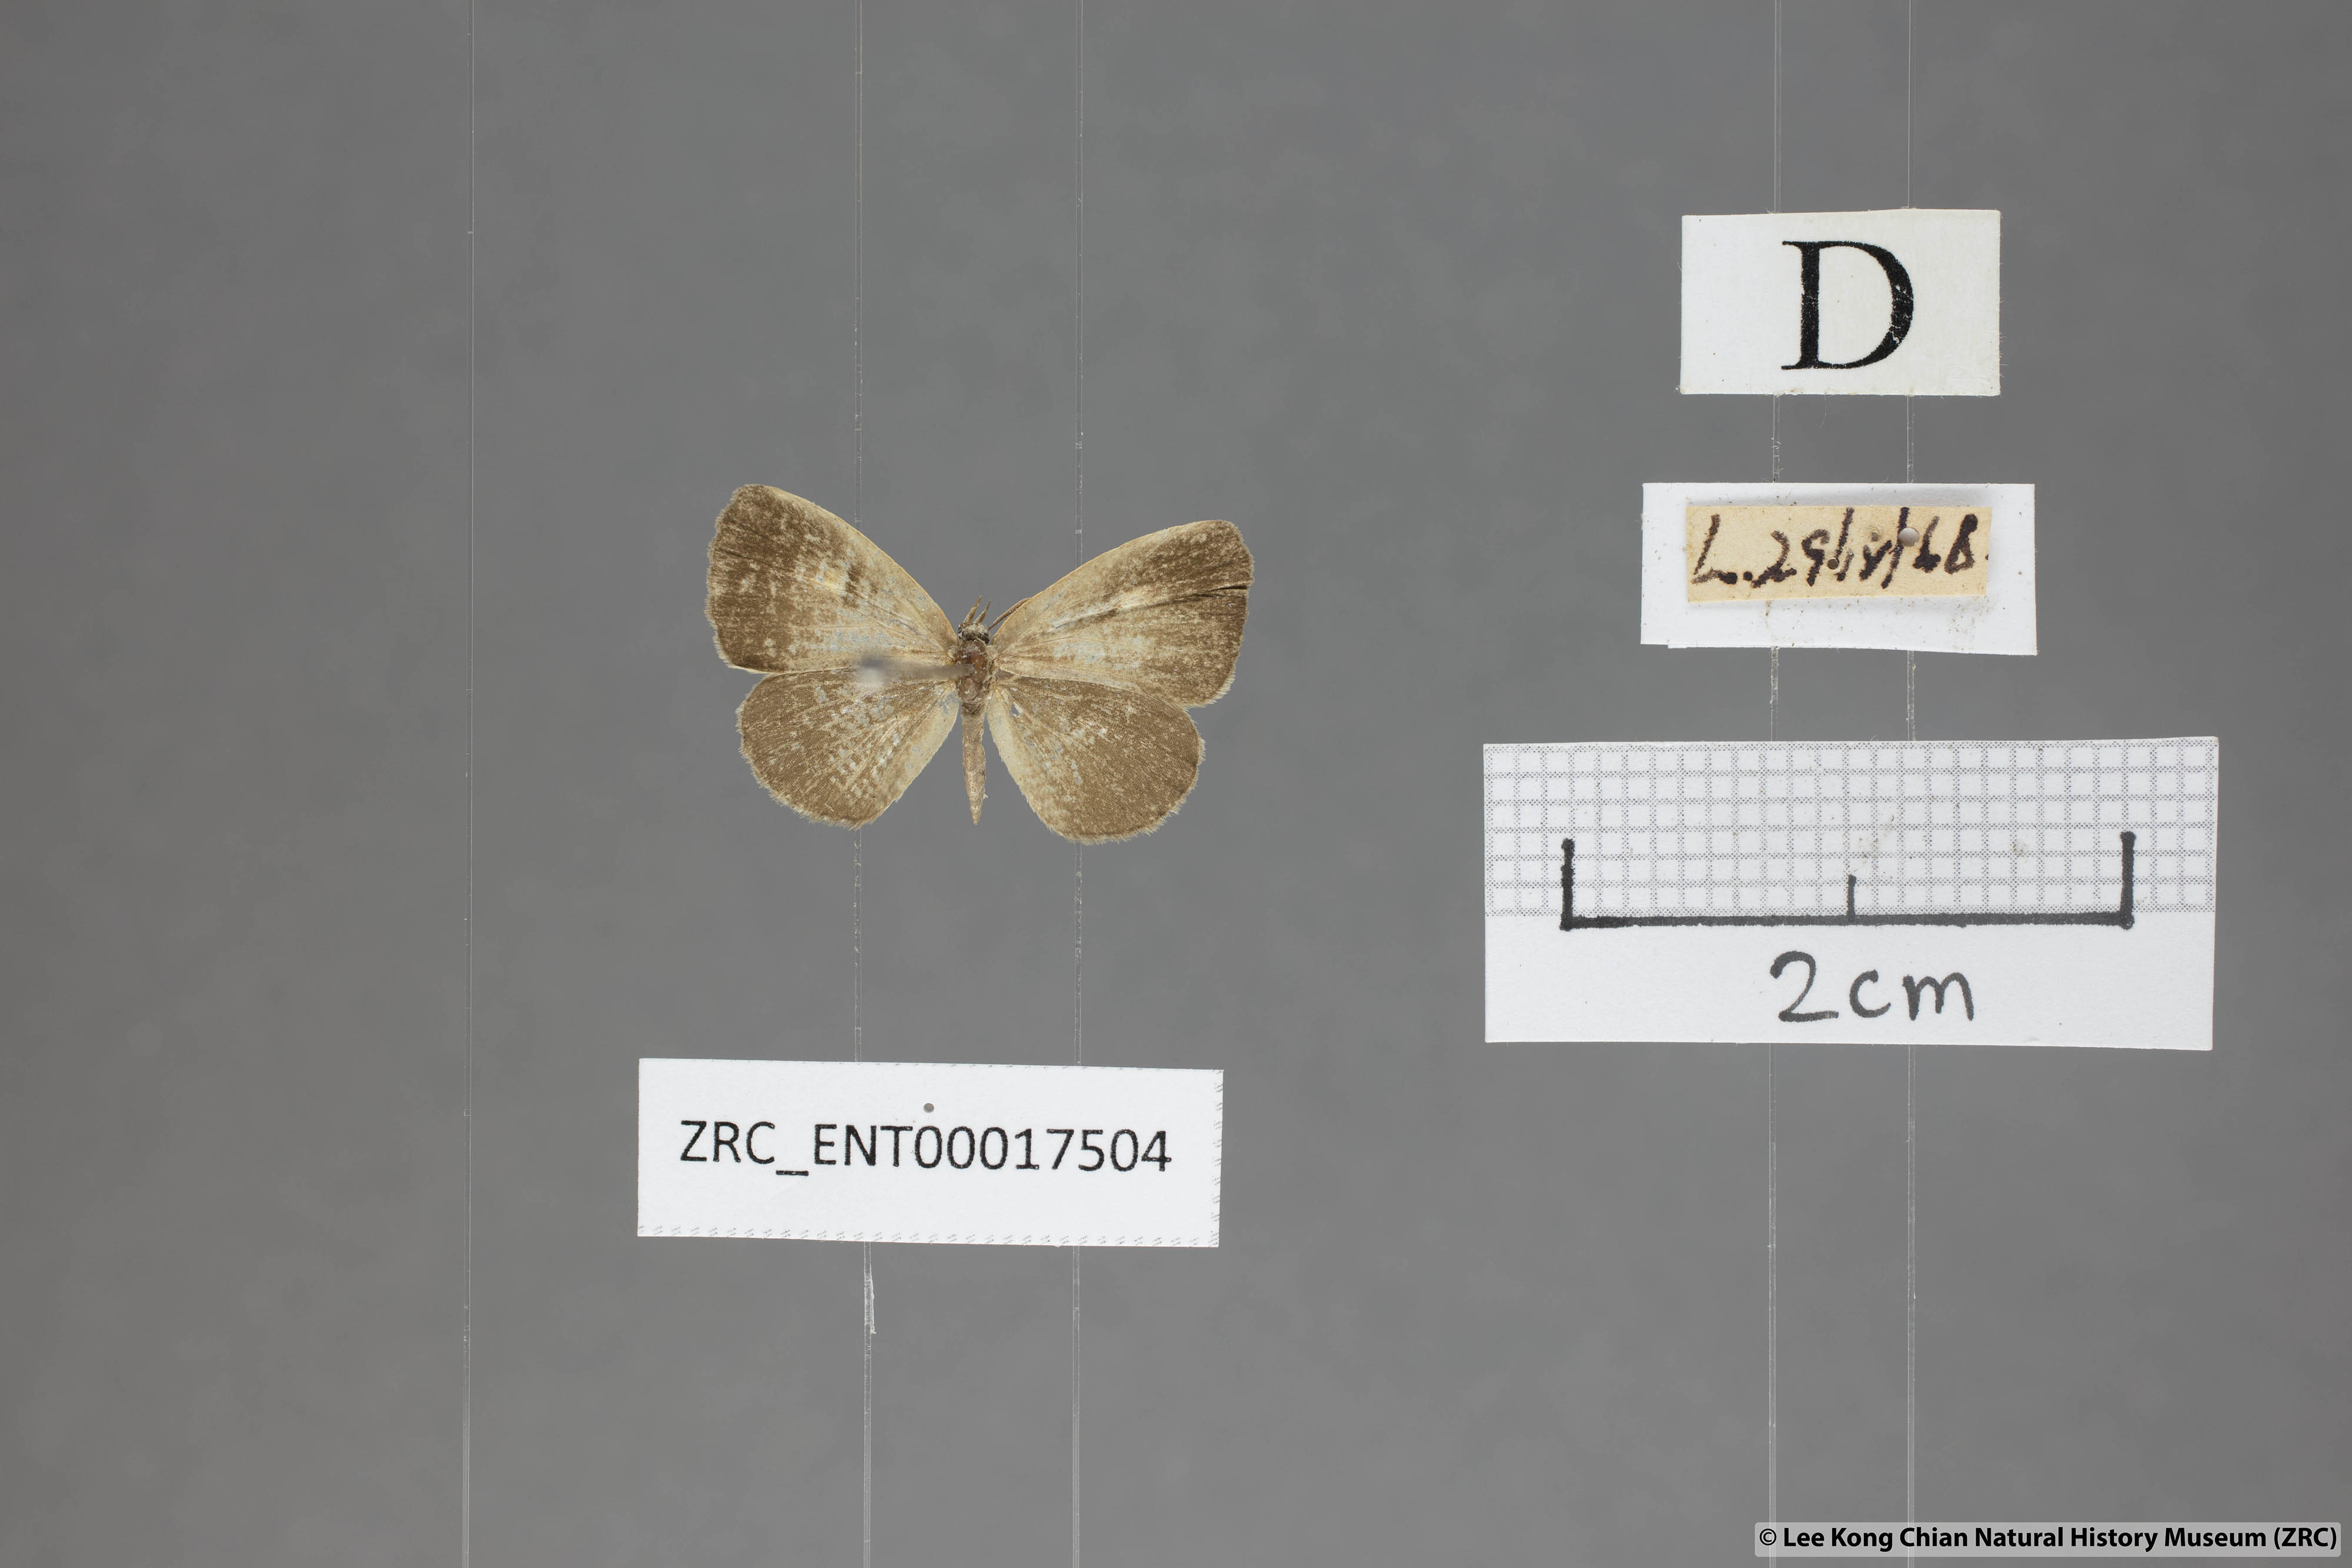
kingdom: Animalia
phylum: Arthropoda
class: Insecta
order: Lepidoptera
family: Lycaenidae
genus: Spalgis
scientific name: Spalgis epeus
